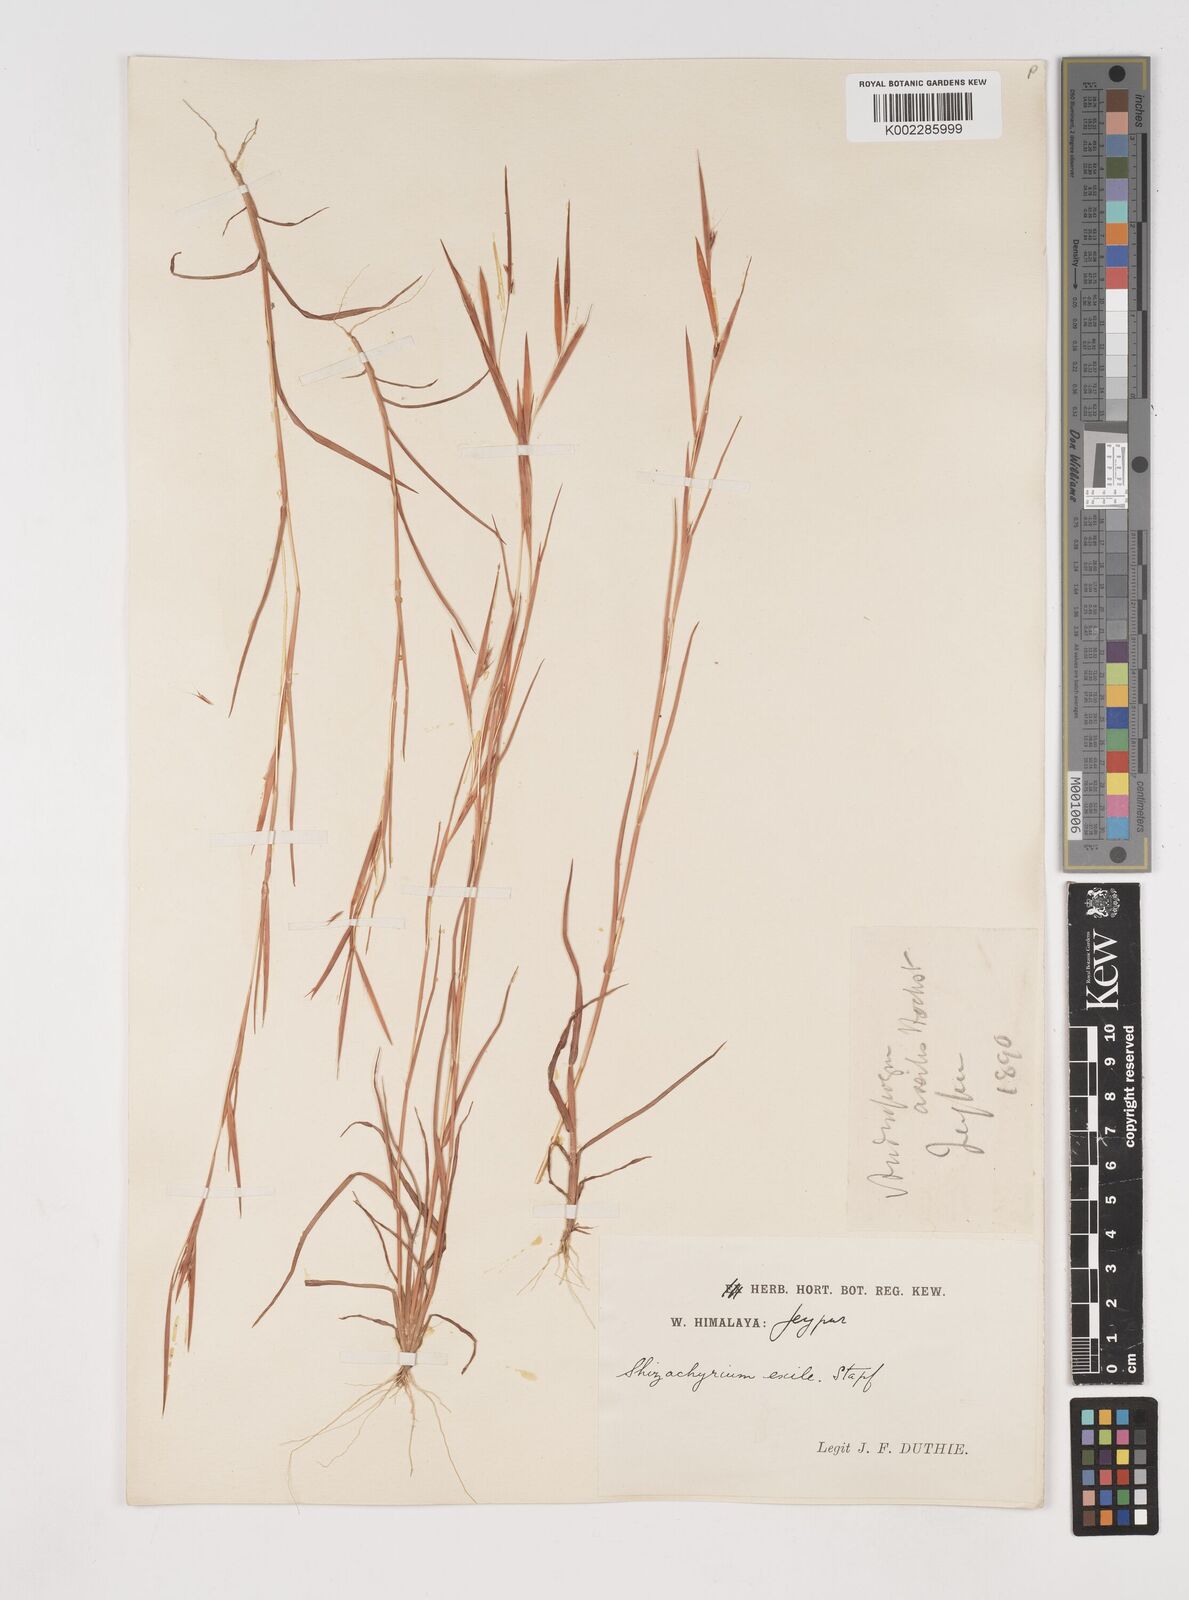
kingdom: Plantae
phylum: Tracheophyta
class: Liliopsida
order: Poales
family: Poaceae
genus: Schizachyrium
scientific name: Schizachyrium exile
